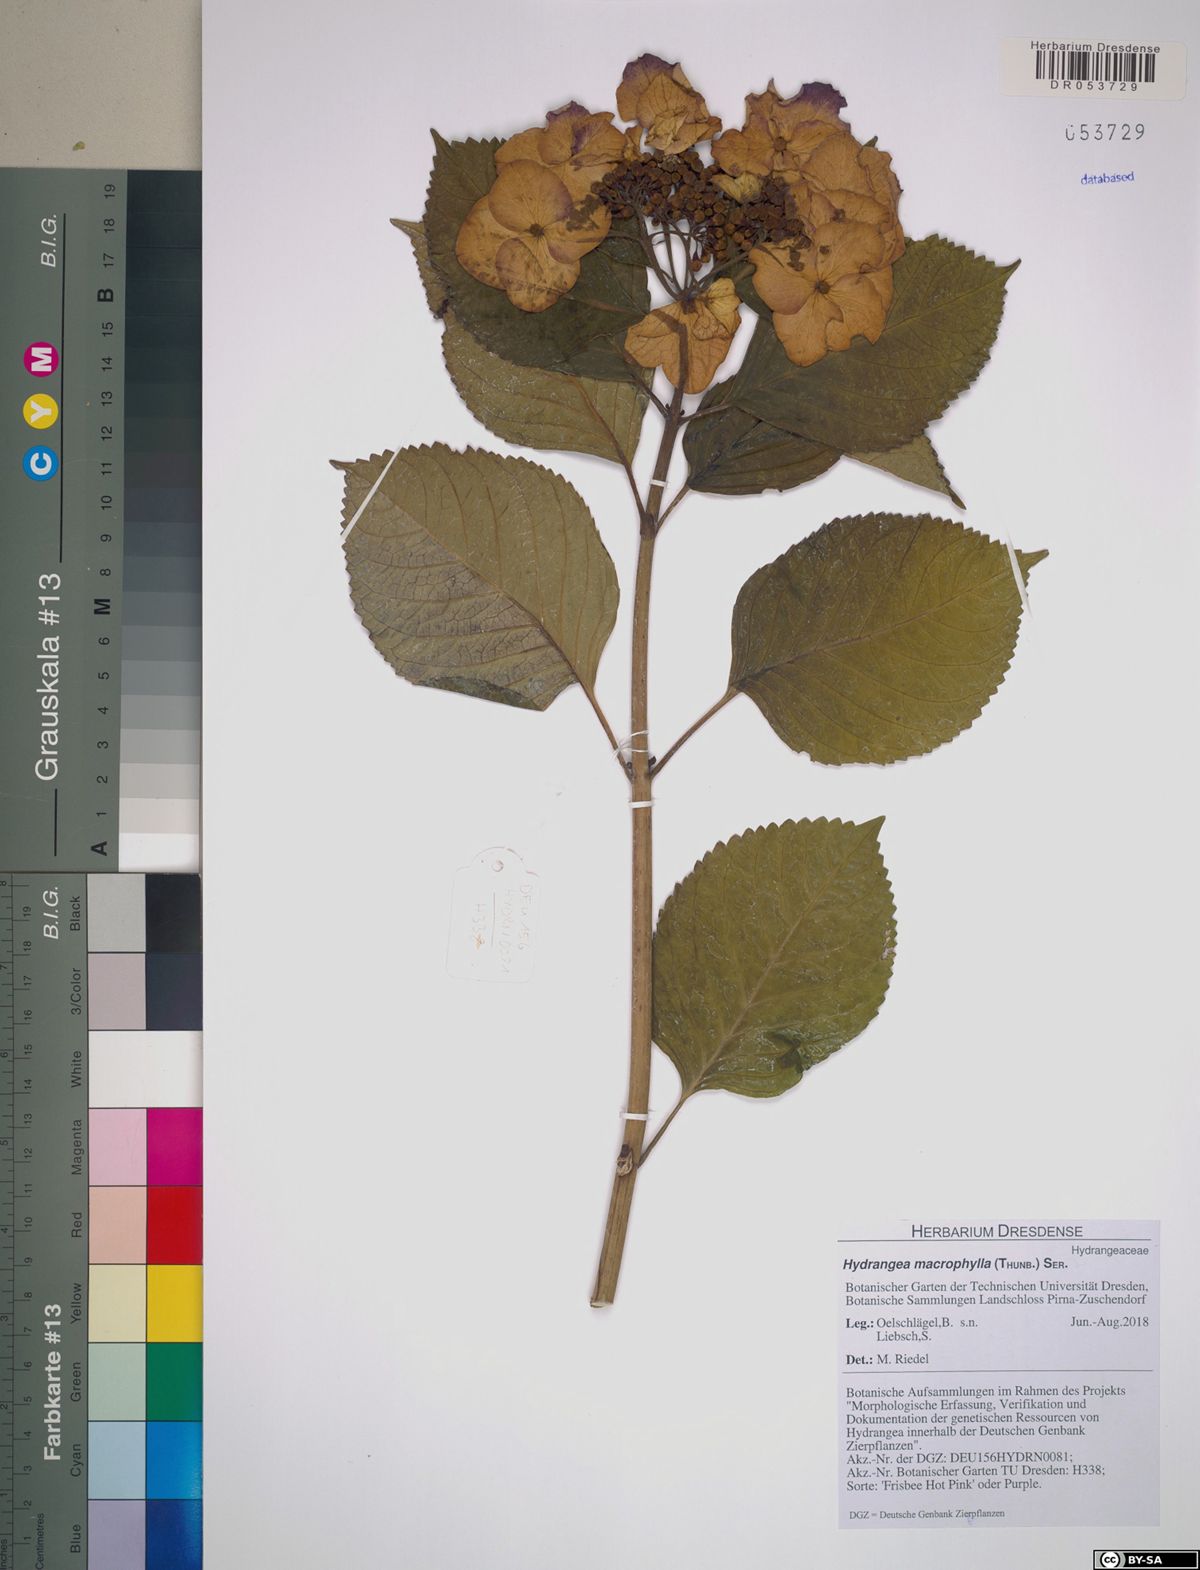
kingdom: Plantae
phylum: Tracheophyta
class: Magnoliopsida
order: Cornales
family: Hydrangeaceae
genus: Hydrangea
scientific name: Hydrangea macrophylla
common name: Hydrangea
